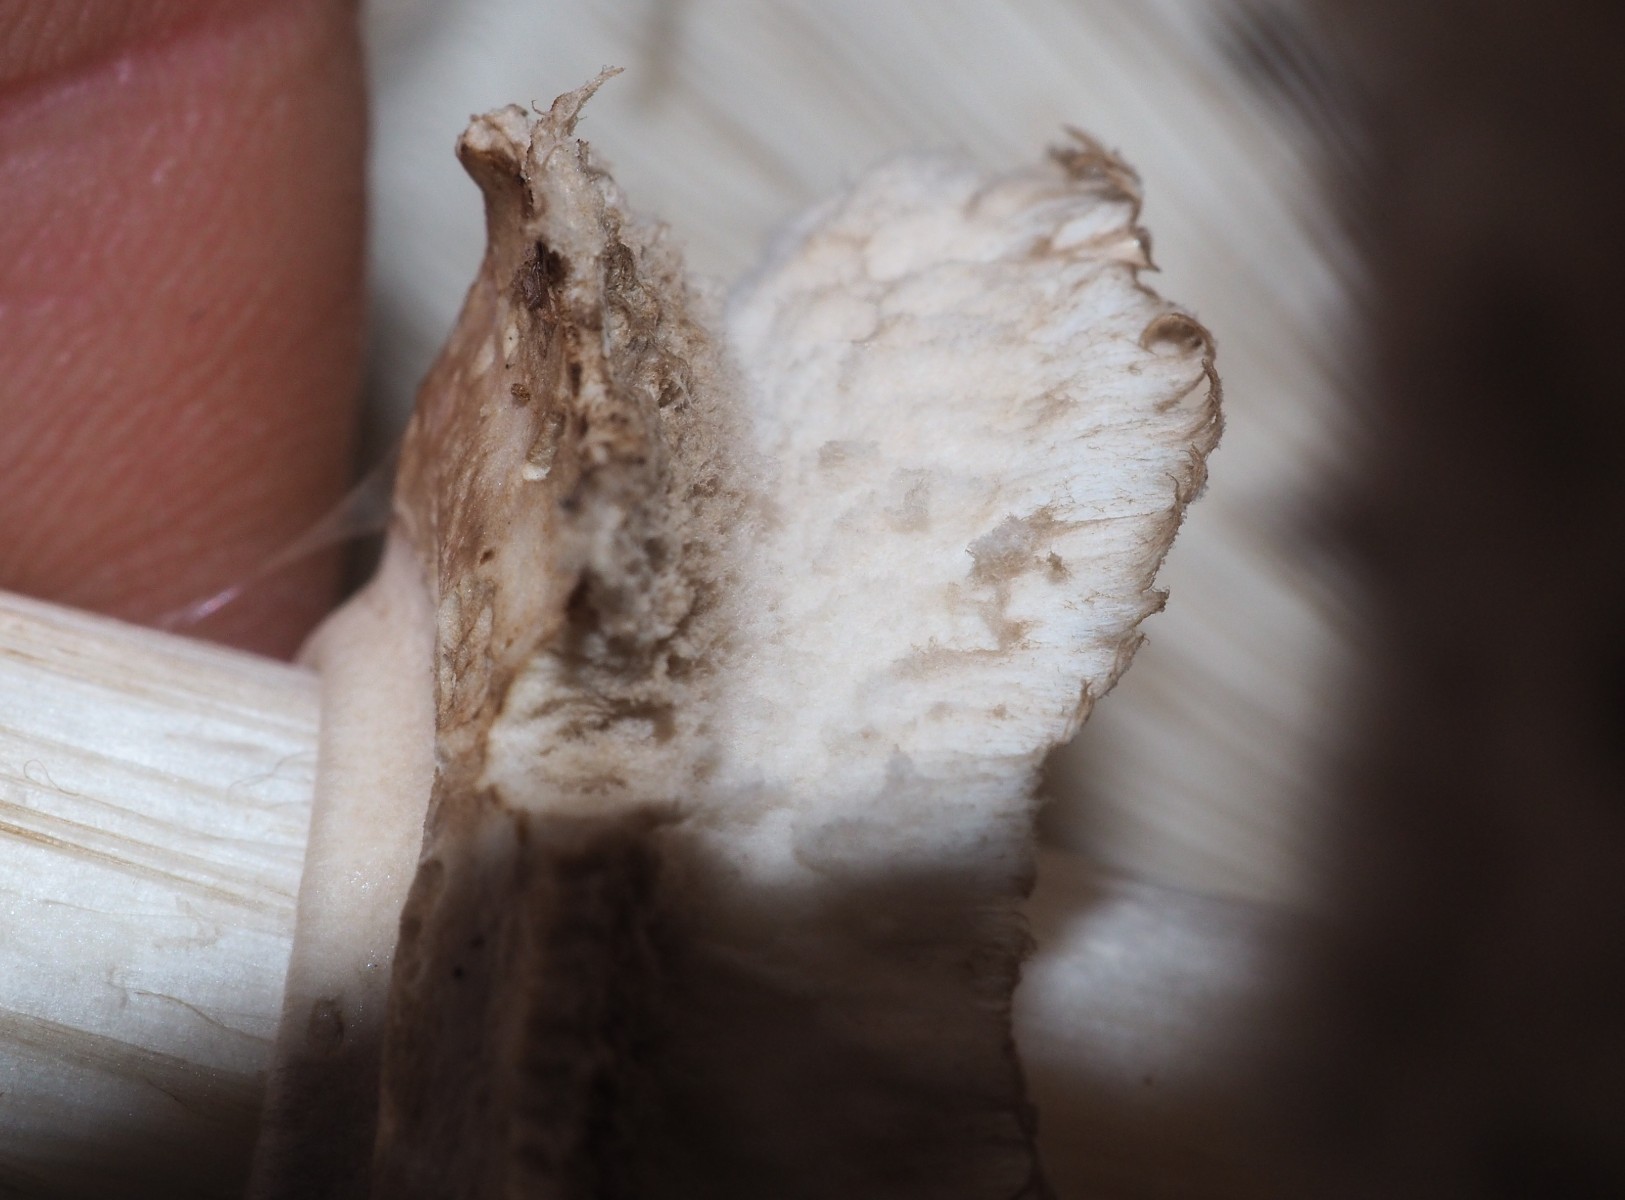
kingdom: Fungi
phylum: Basidiomycota
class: Agaricomycetes
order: Agaricales
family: Agaricaceae
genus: Chlorophyllum
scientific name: Chlorophyllum olivieri
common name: almindelig rabarberhat
